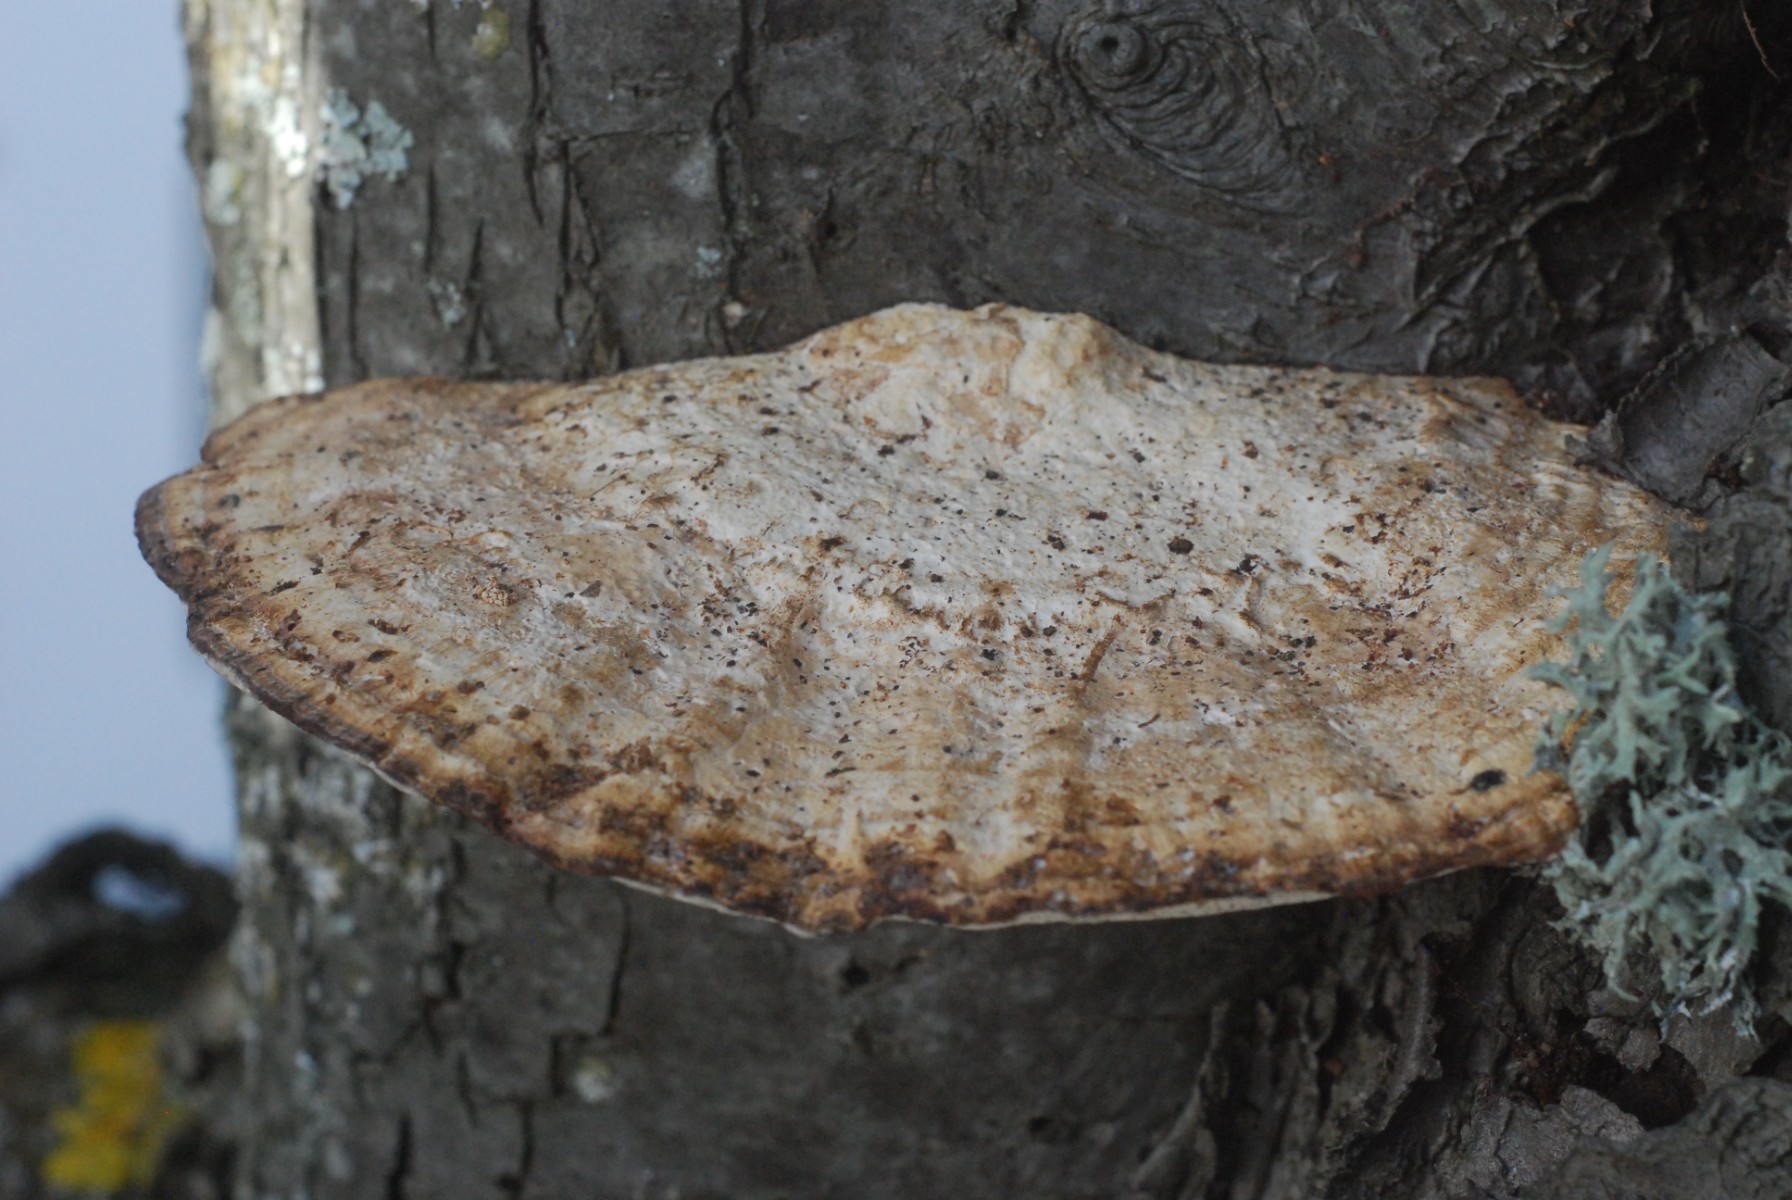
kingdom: Fungi
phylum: Basidiomycota
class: Agaricomycetes
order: Polyporales
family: Polyporaceae
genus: Daedaleopsis
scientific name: Daedaleopsis confragosa
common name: rødmende læderporesvamp
